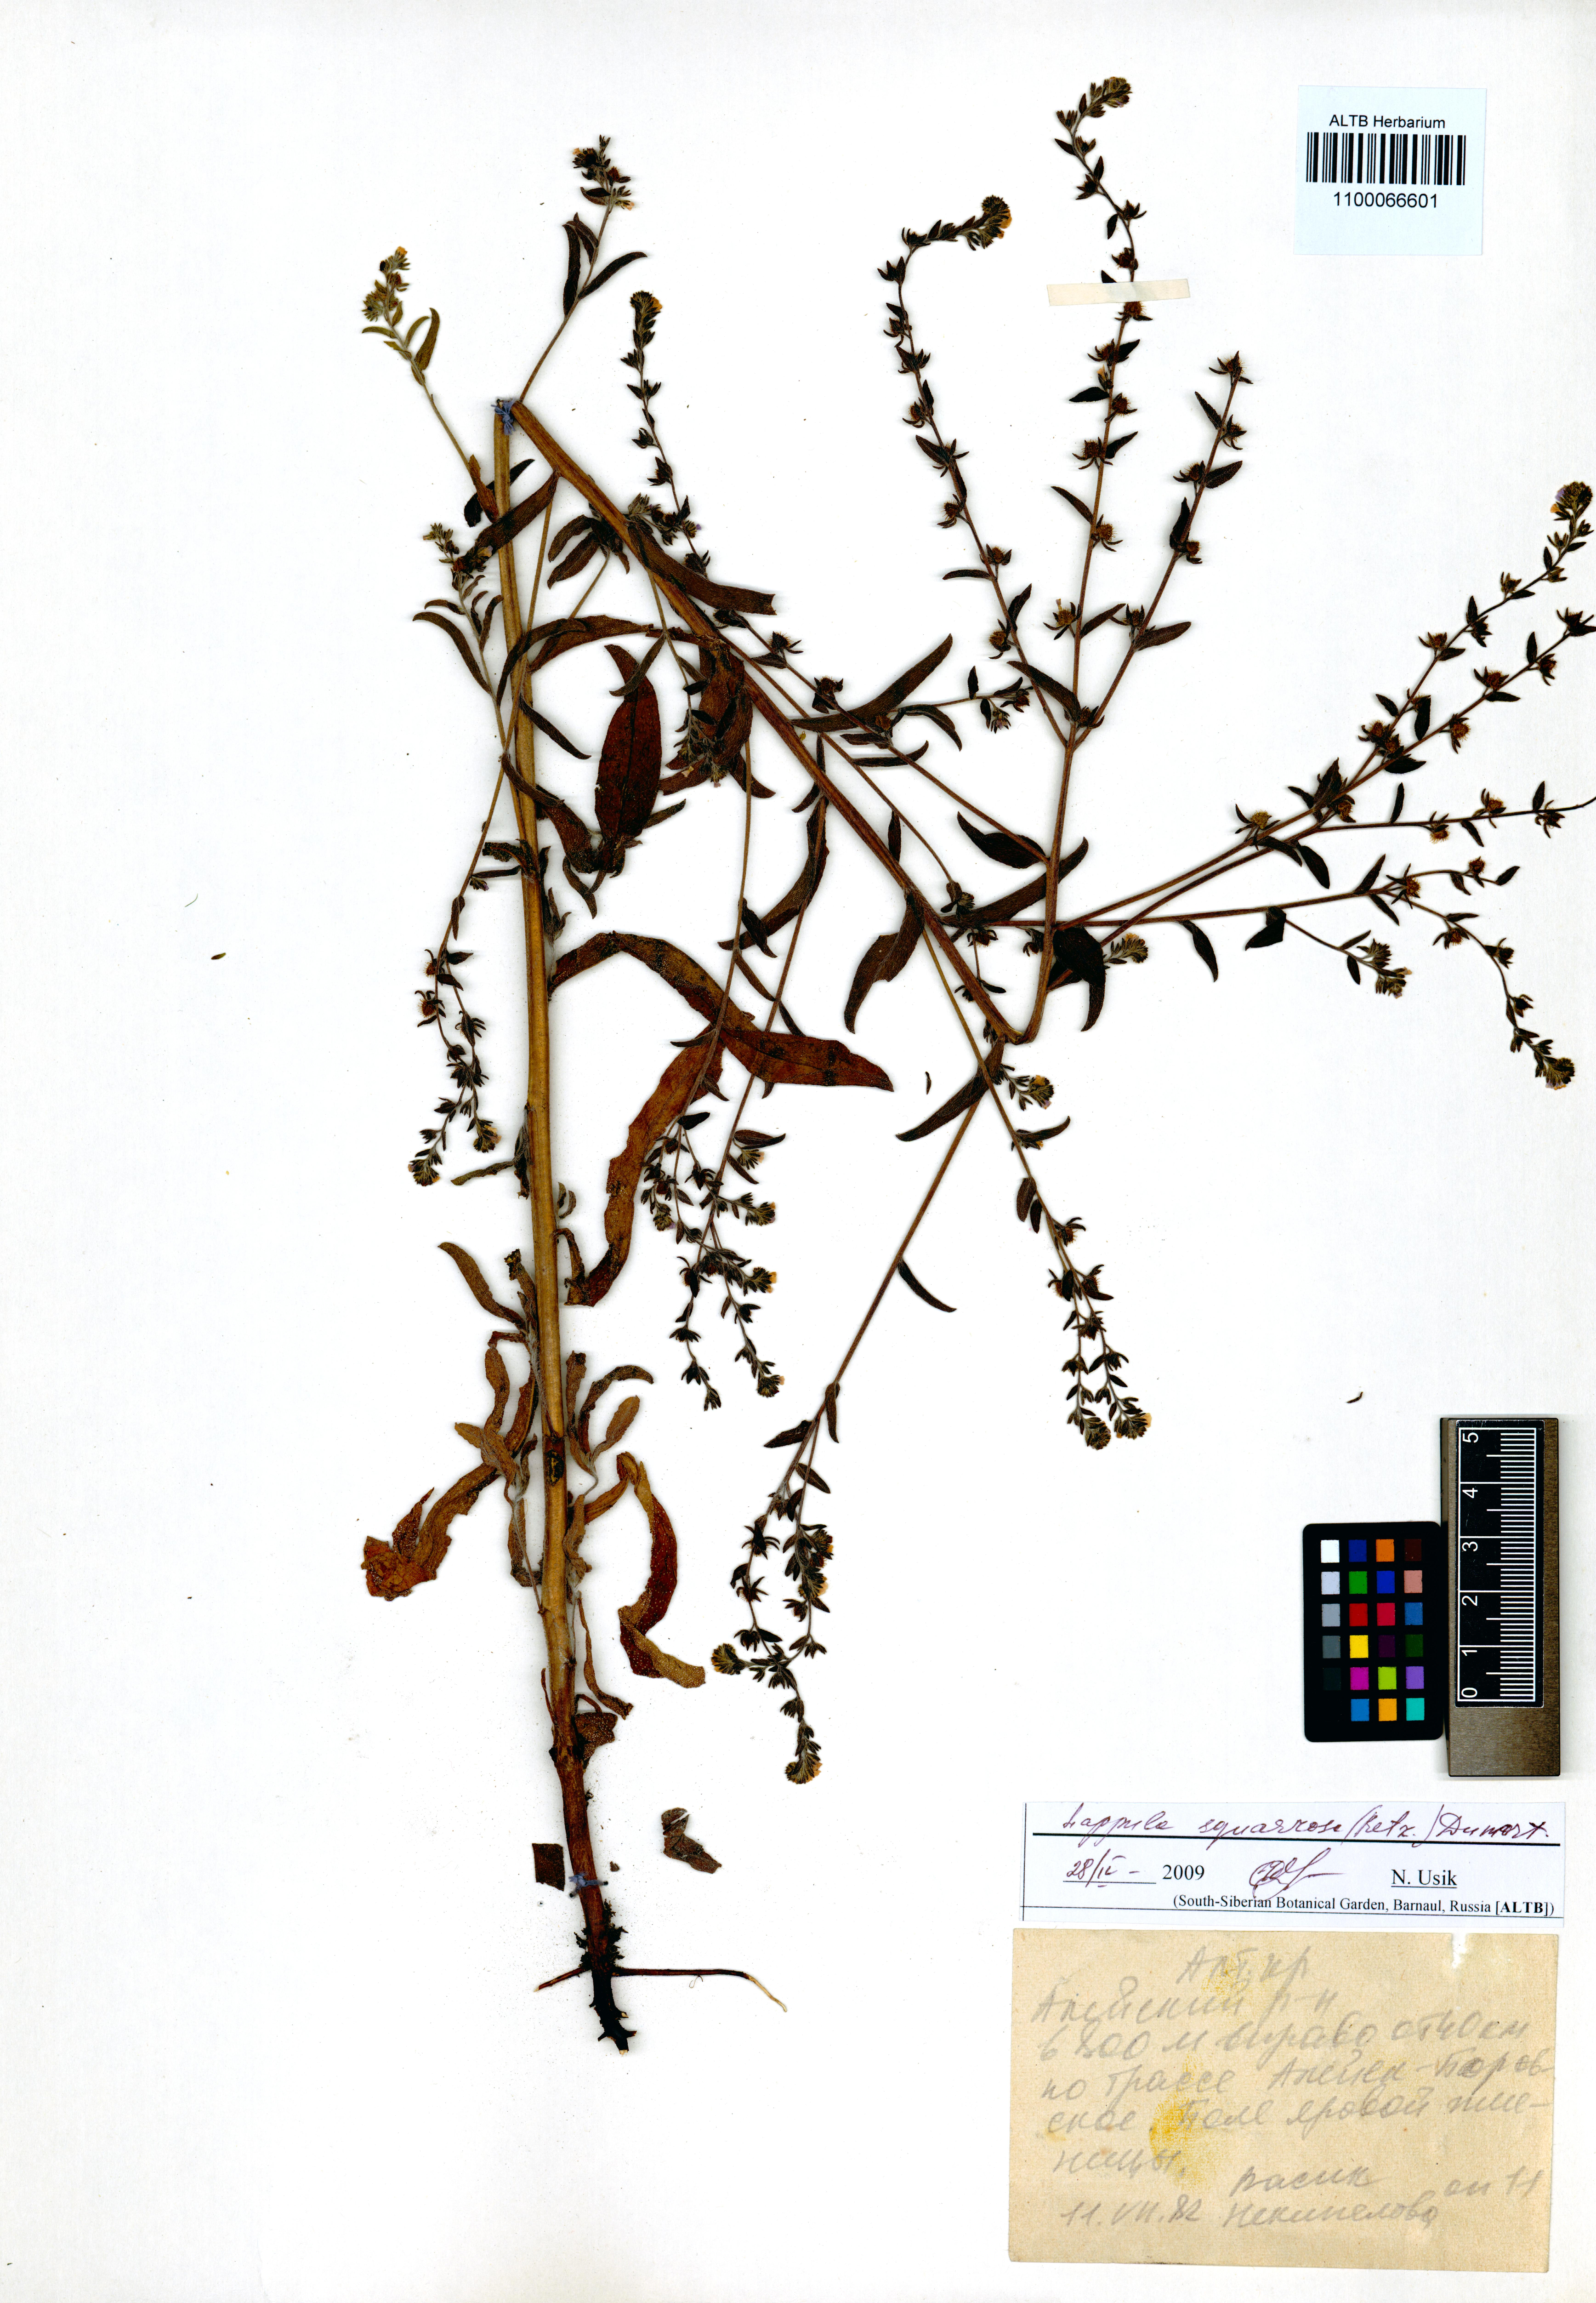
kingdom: Plantae
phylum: Tracheophyta
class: Magnoliopsida
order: Boraginales
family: Boraginaceae
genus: Lappula
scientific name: Lappula squarrosa
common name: European stickseed
